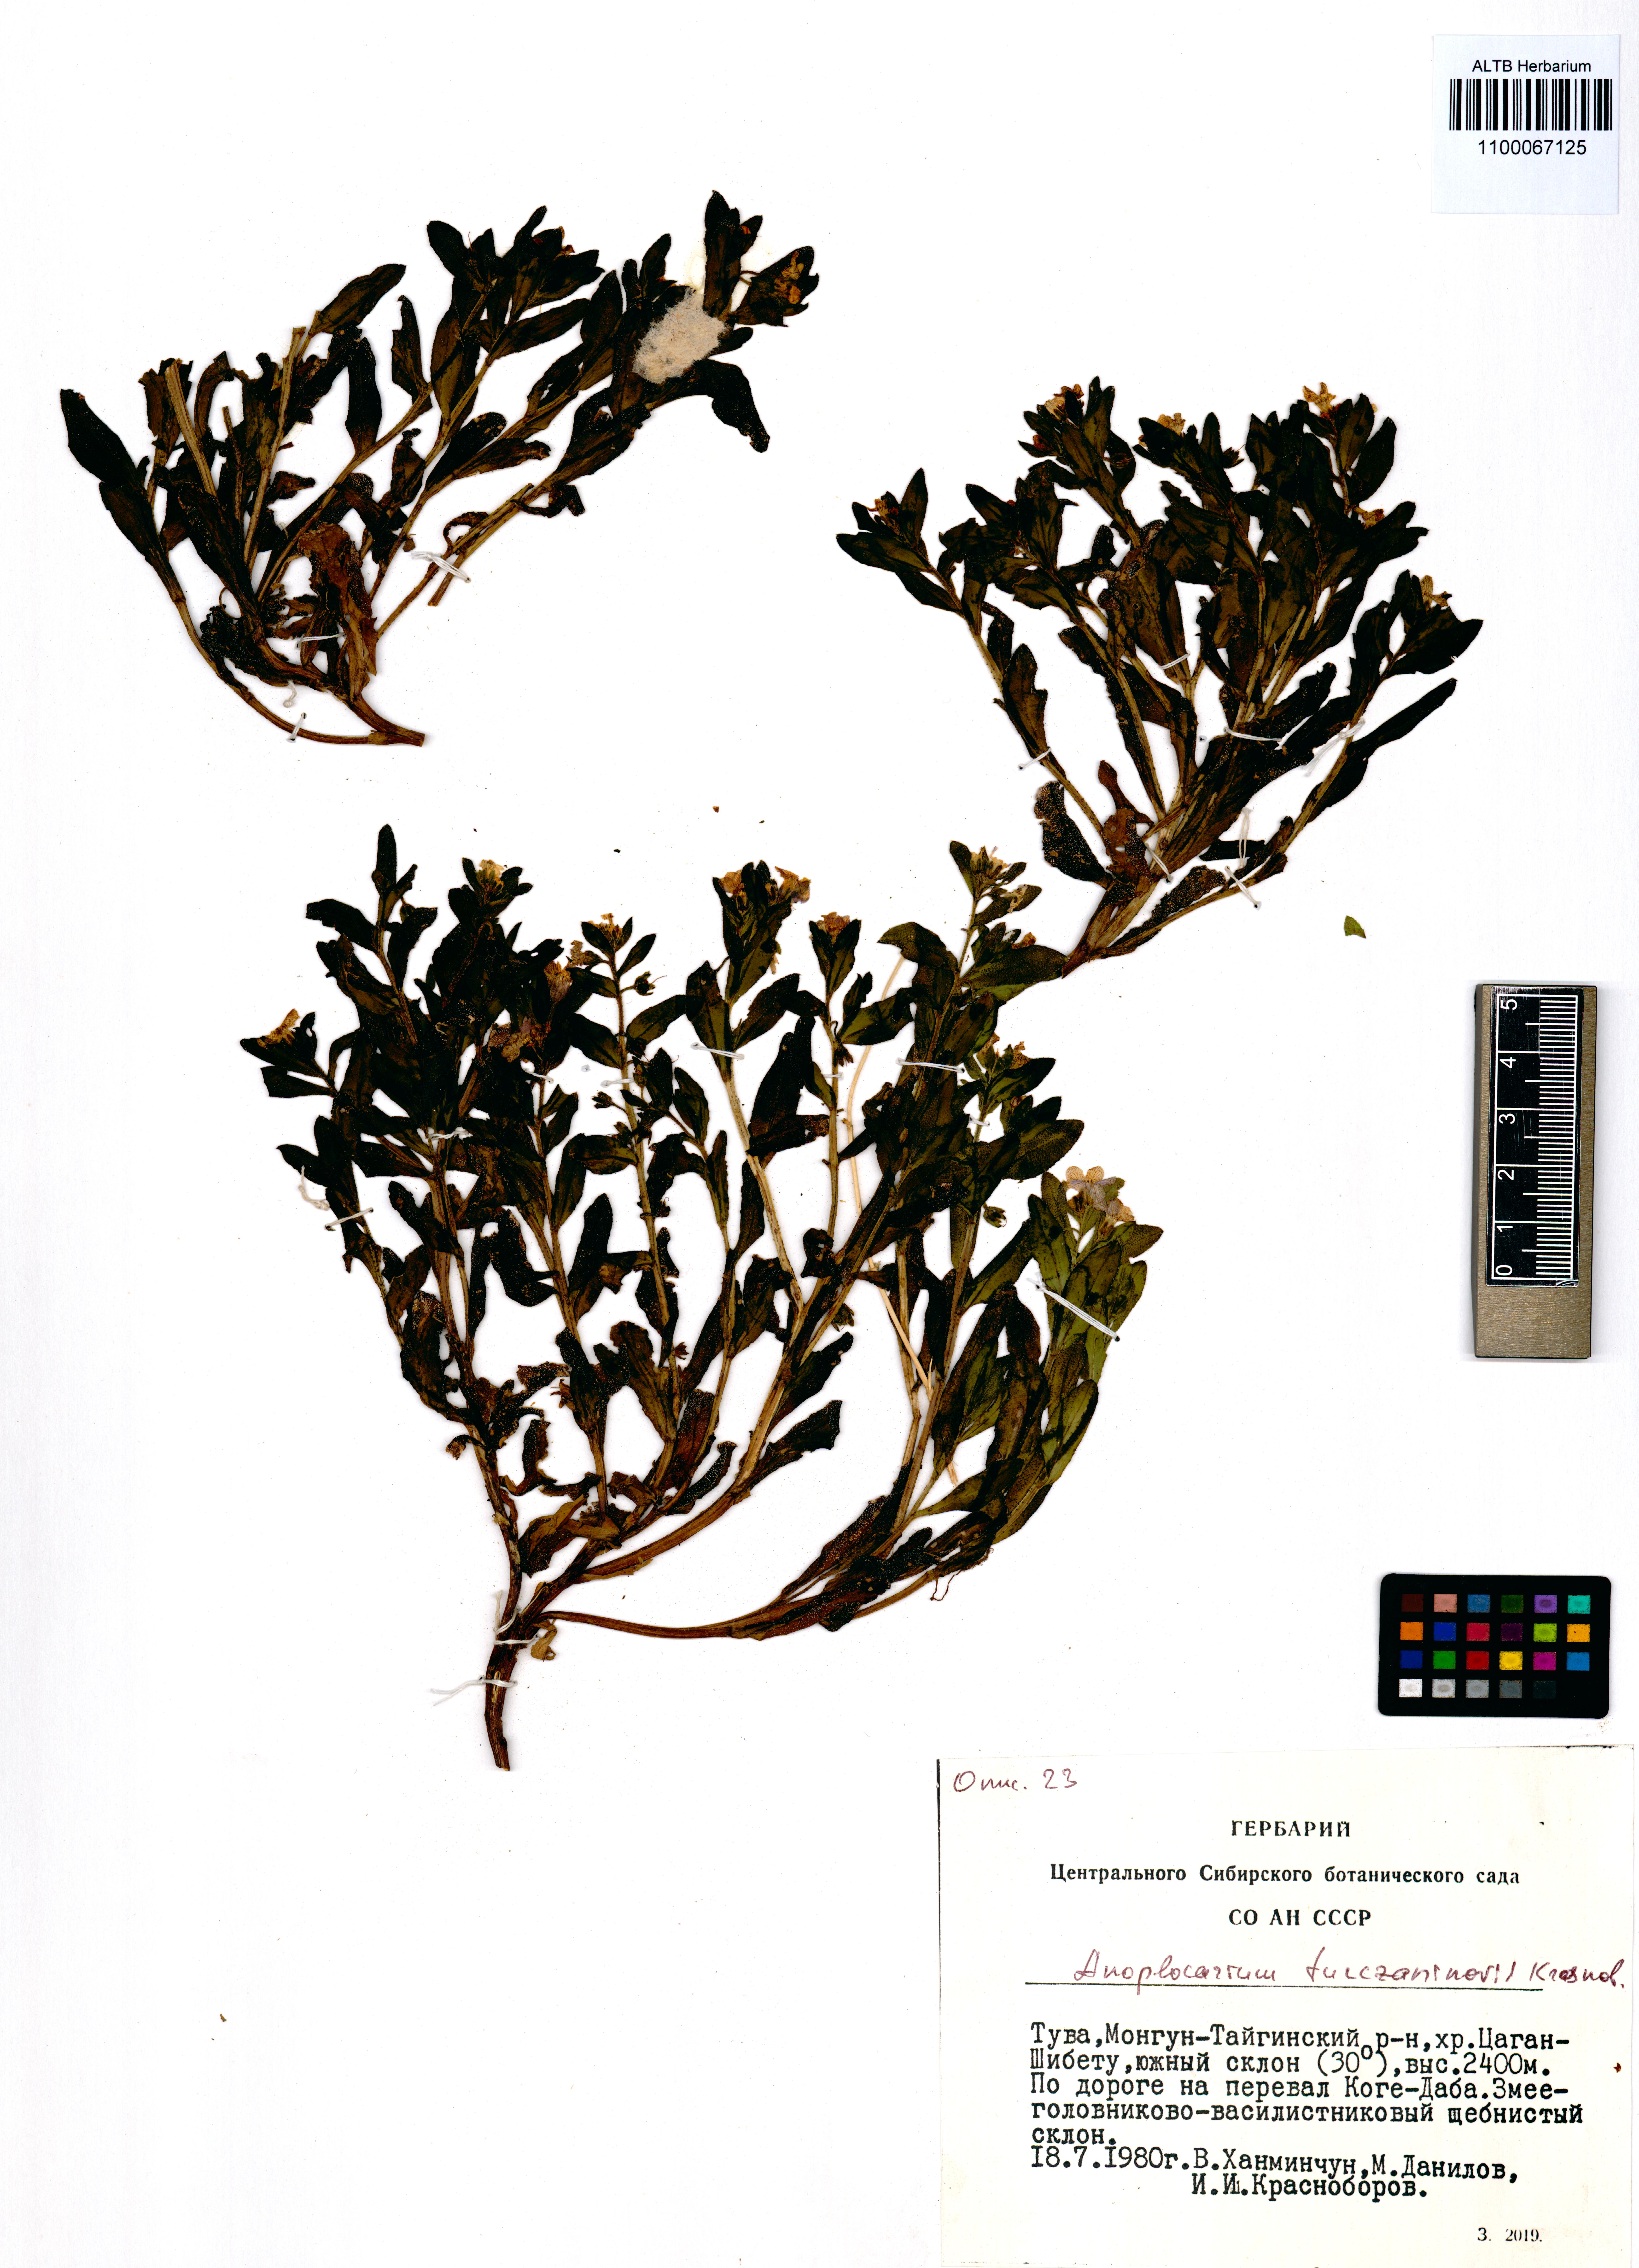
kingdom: Plantae
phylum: Tracheophyta
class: Magnoliopsida
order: Boraginales
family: Boraginaceae
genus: Anoplocaryum
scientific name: Anoplocaryum turczaninovii
